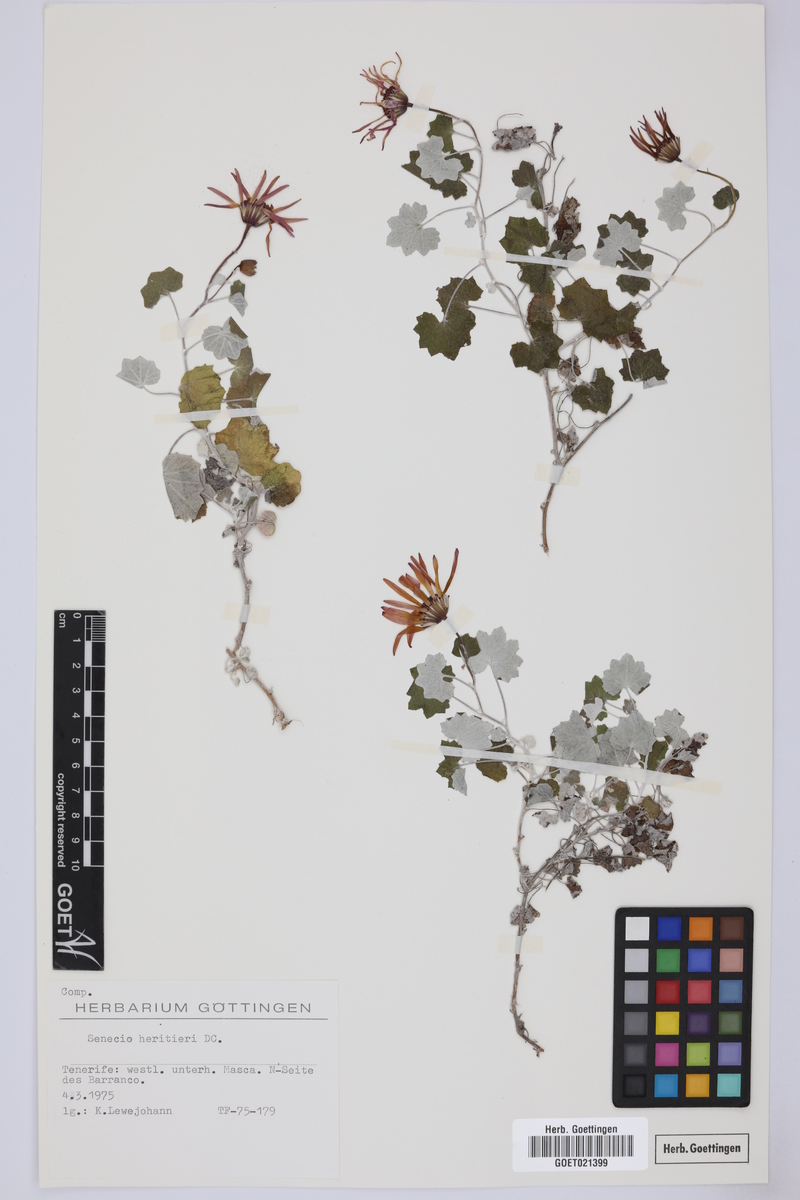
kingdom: Plantae
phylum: Tracheophyta
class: Magnoliopsida
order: Asterales
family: Asteraceae
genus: Pericallis
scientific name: Pericallis lanata
